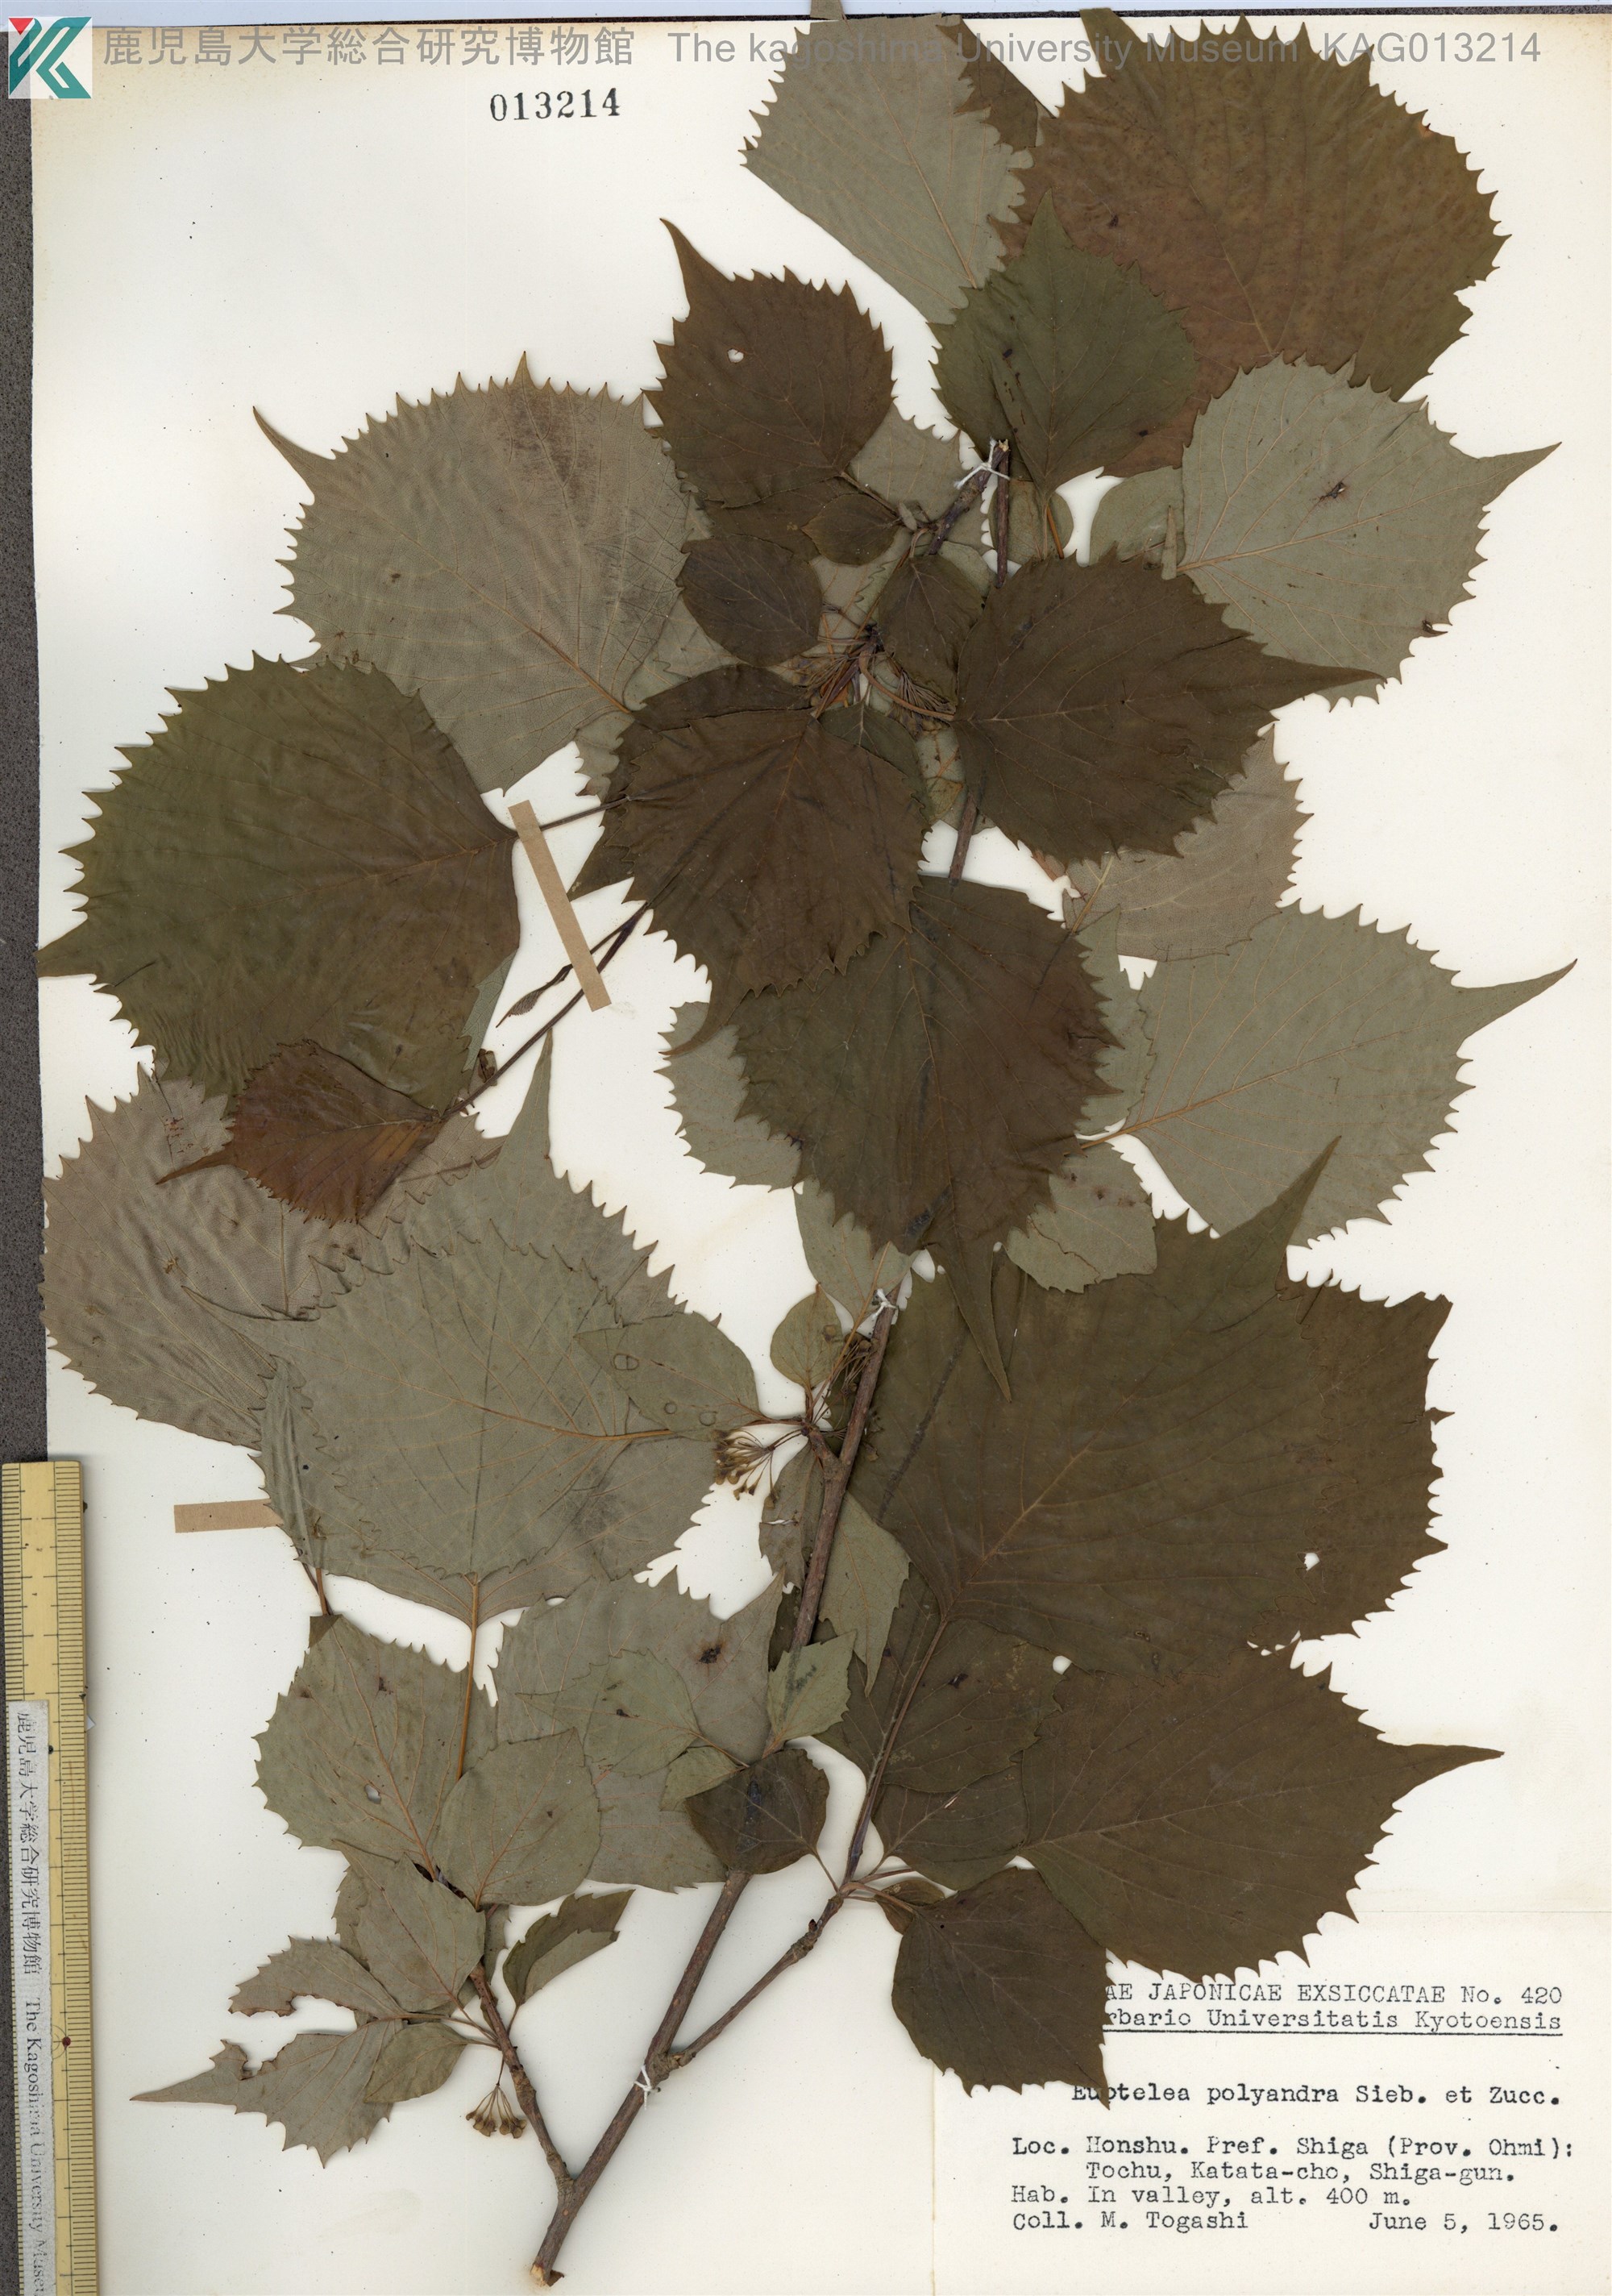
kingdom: Plantae
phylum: Tracheophyta
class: Magnoliopsida
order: Ranunculales
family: Eupteleaceae
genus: Euptelea
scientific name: Euptelea polyandra
